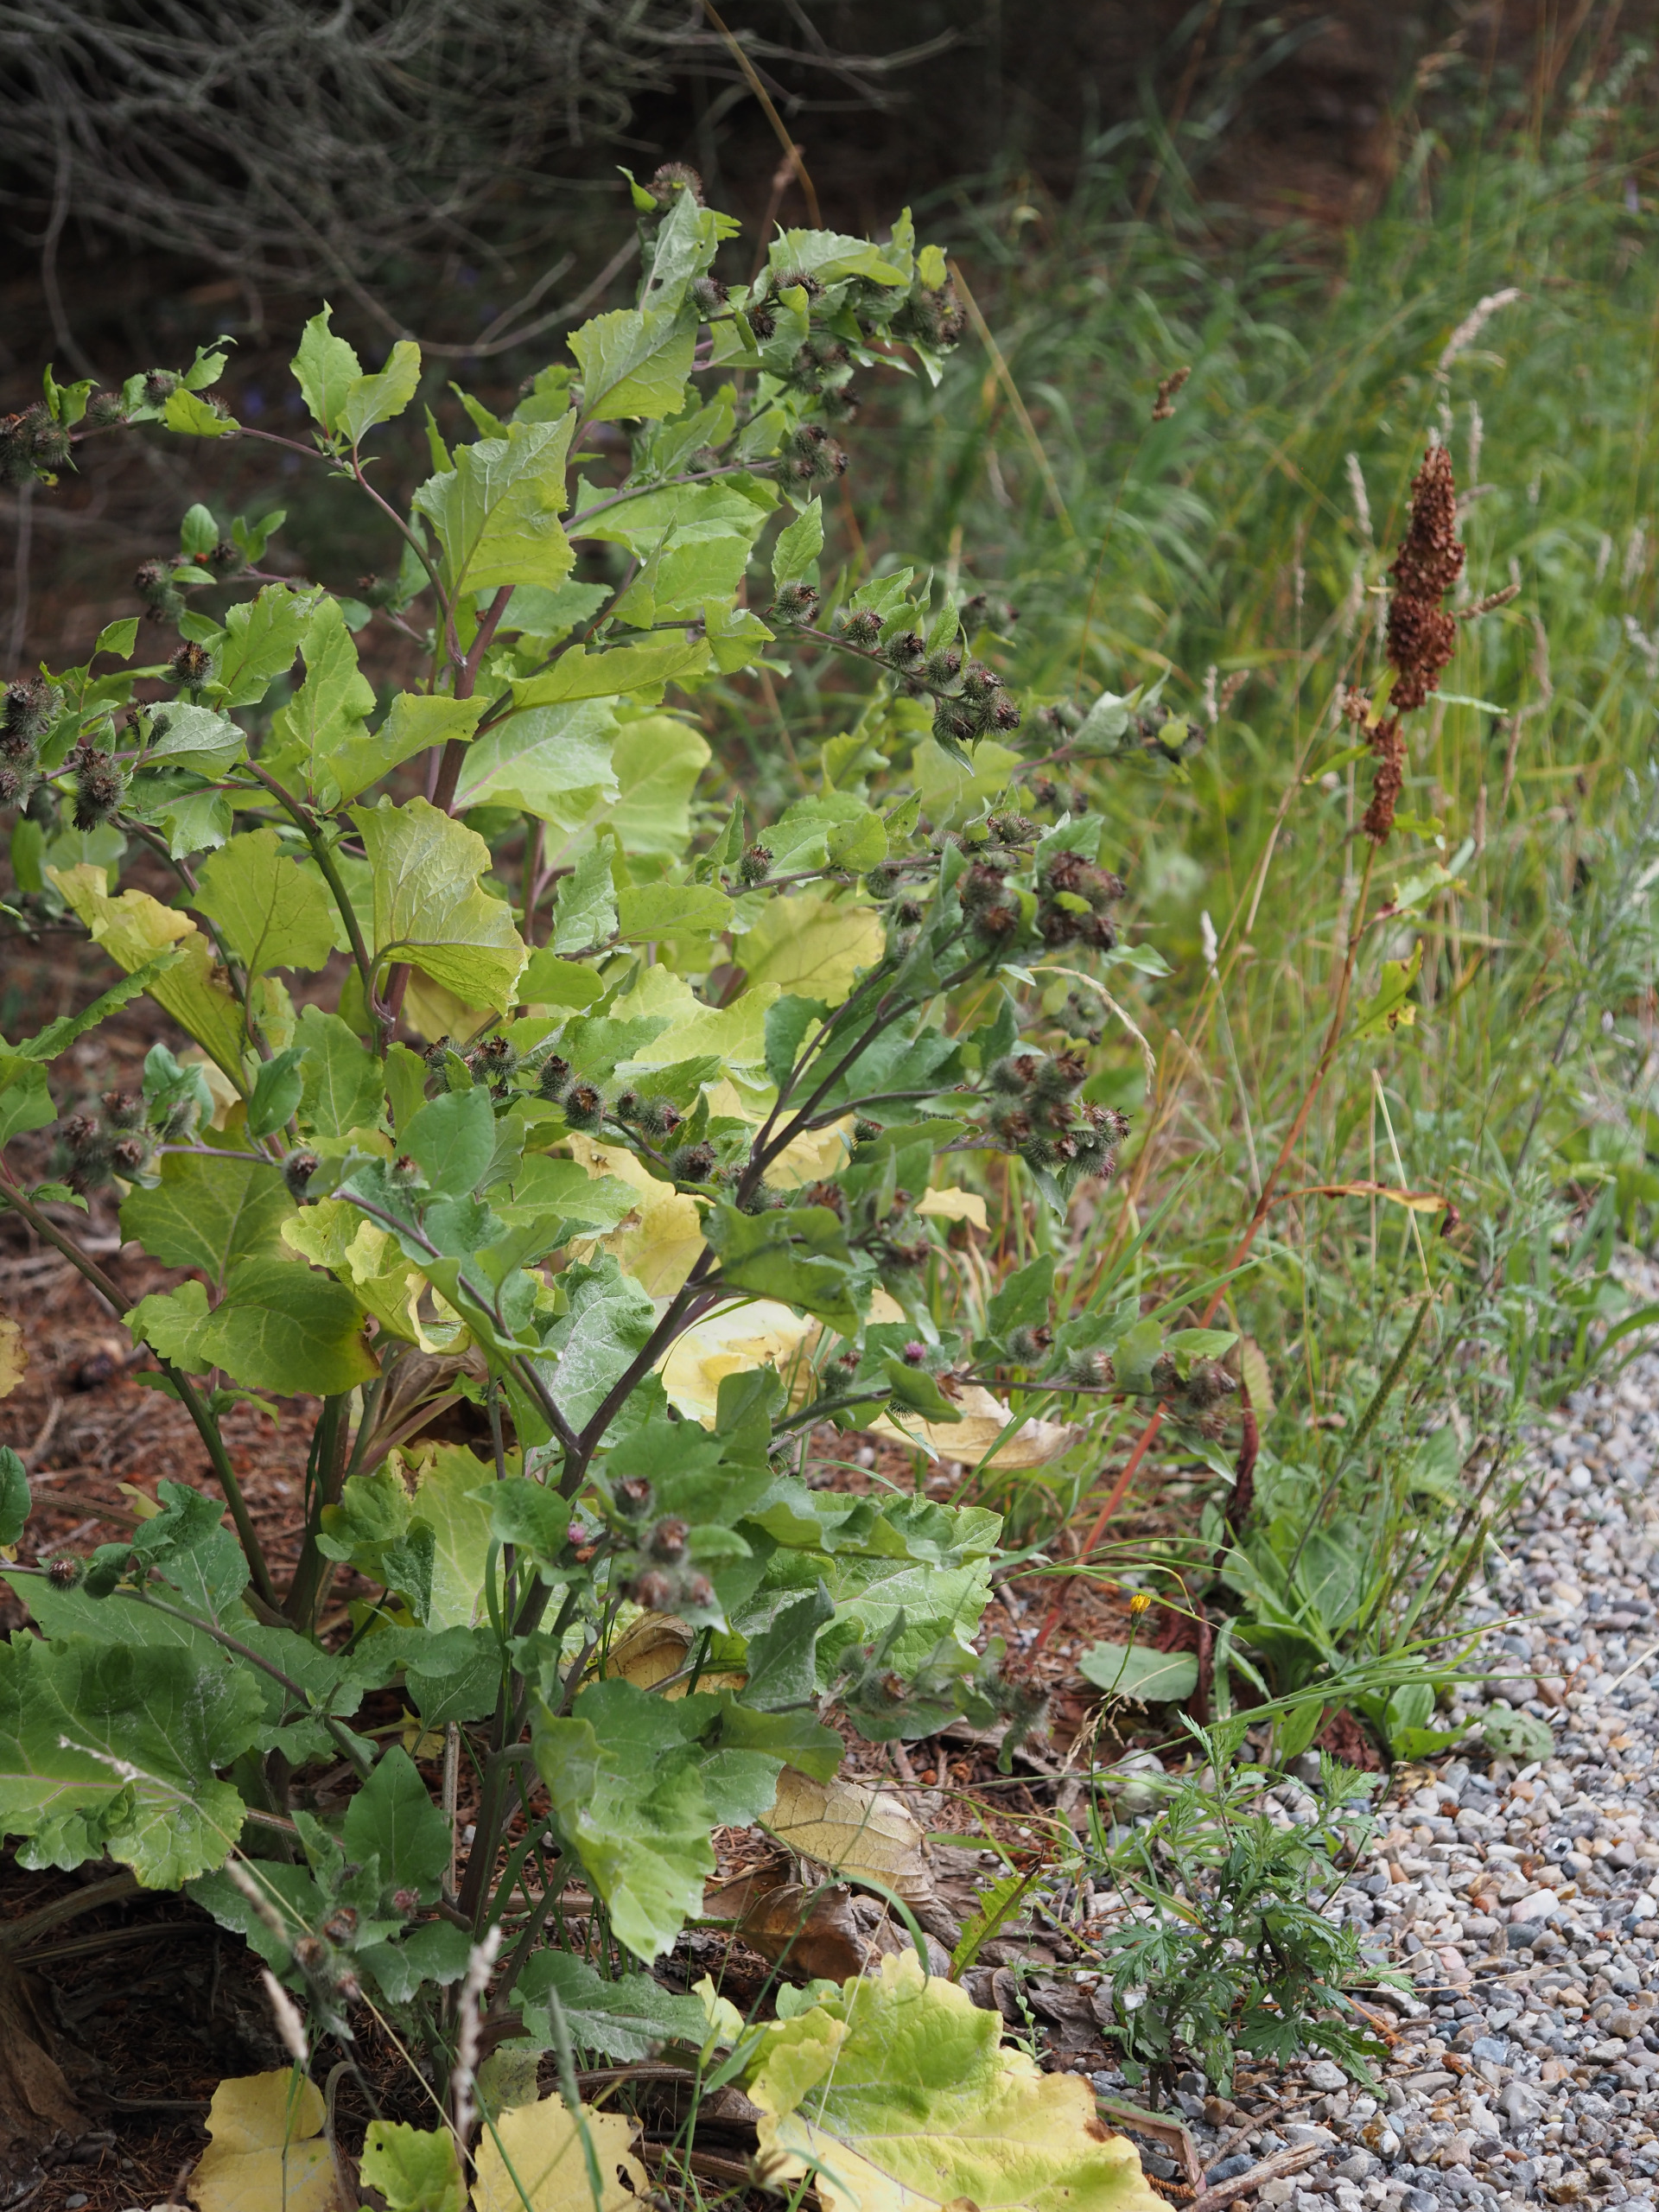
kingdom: Plantae
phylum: Tracheophyta
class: Magnoliopsida
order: Asterales
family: Asteraceae
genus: Arctium
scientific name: Arctium nemorosum
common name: Skov-burre
